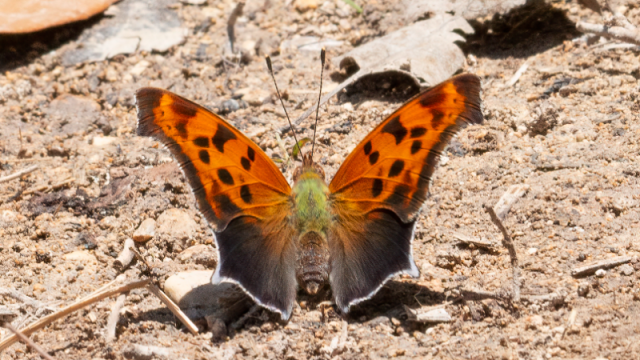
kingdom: Animalia
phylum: Arthropoda
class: Insecta
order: Lepidoptera
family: Nymphalidae
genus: Polygonia
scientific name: Polygonia comma
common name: Eastern Comma
